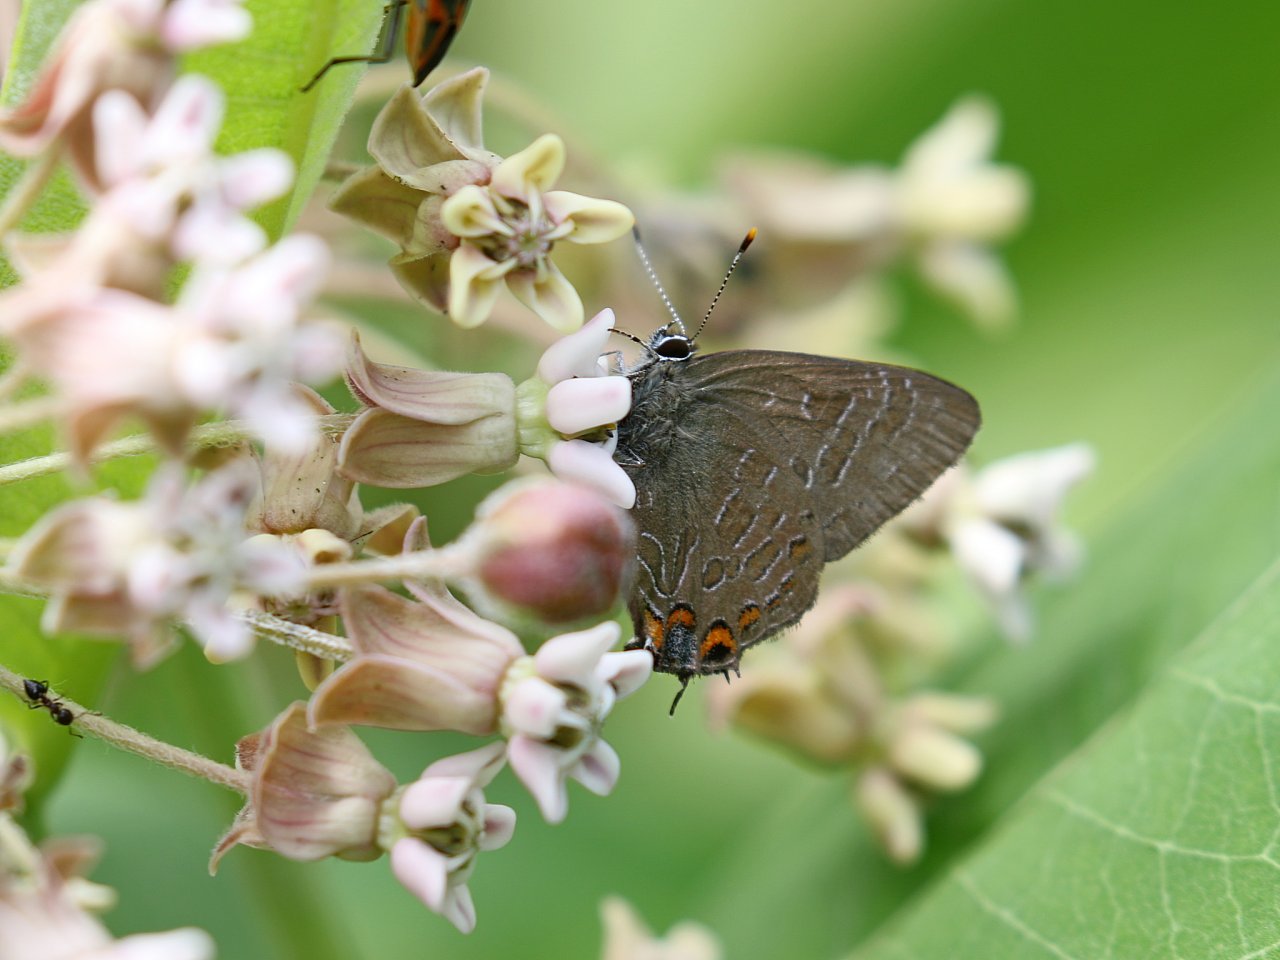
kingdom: Animalia
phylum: Arthropoda
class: Insecta
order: Lepidoptera
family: Lycaenidae
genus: Satyrium
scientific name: Satyrium liparops
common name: Striped Hairstreak
